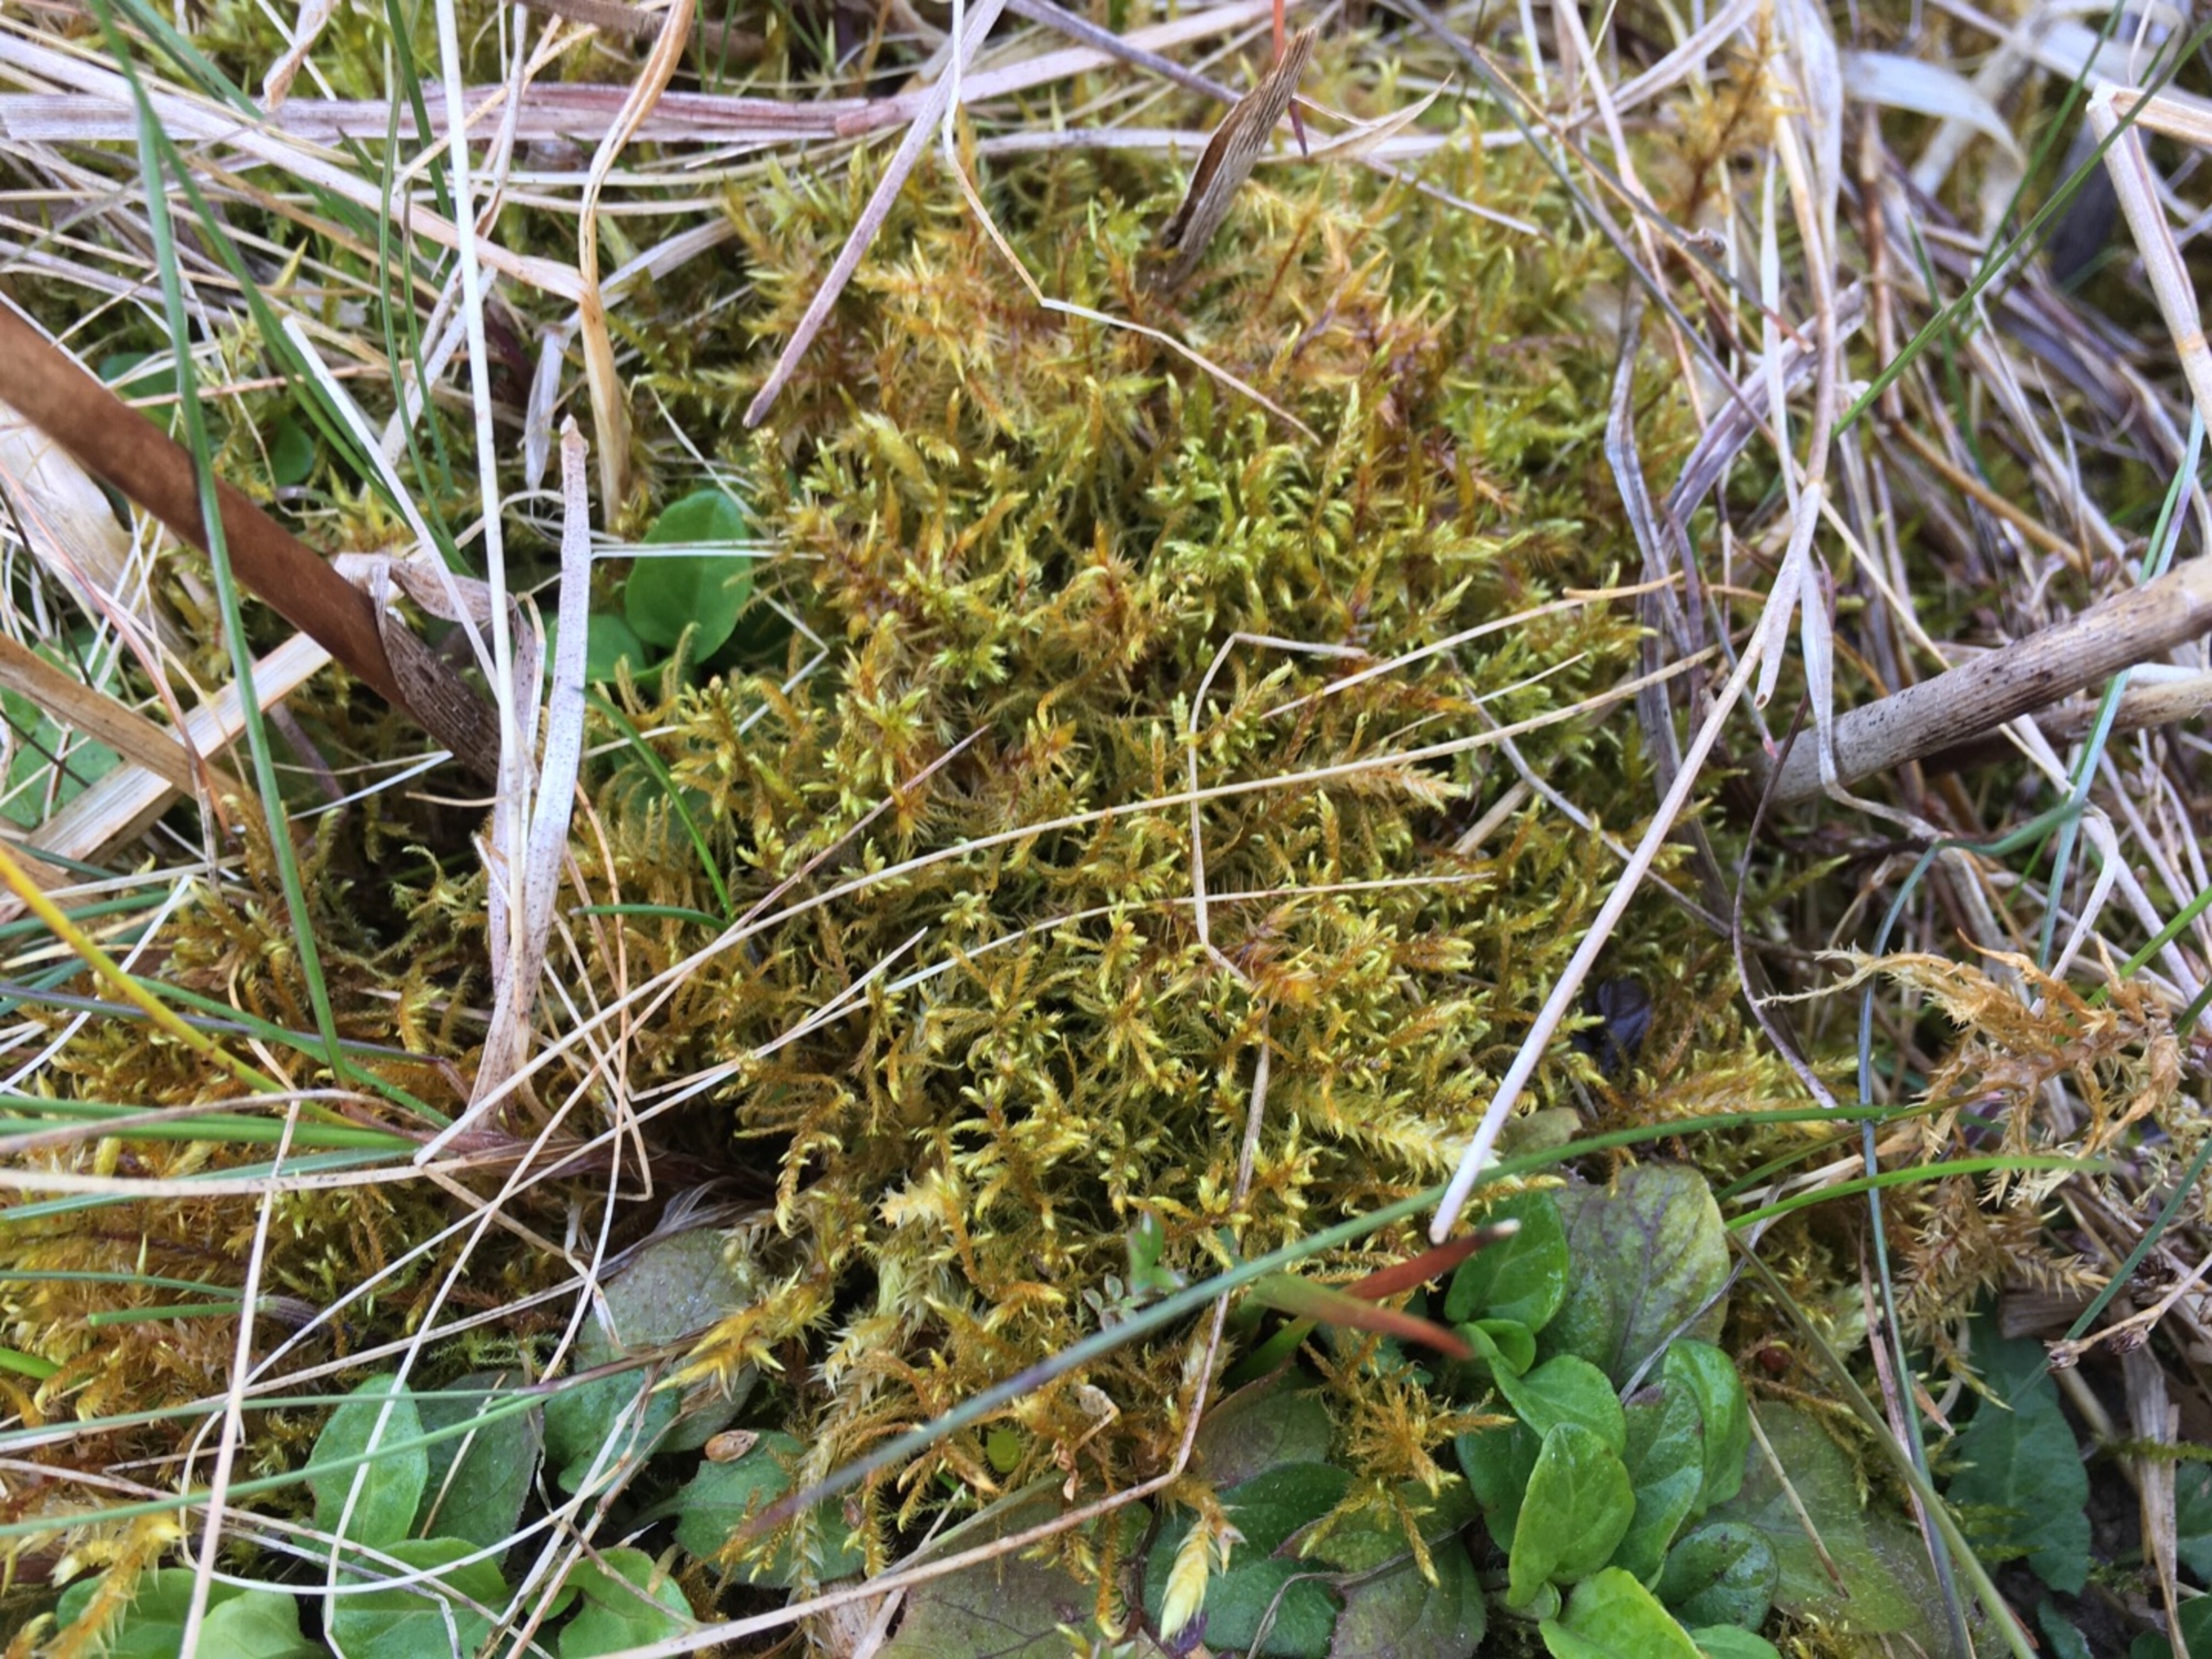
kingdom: Plantae
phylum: Bryophyta
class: Bryopsida
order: Hypnales
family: Amblystegiaceae
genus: Cratoneuron
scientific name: Cratoneuron filicinum
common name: Grøn eremitmos
